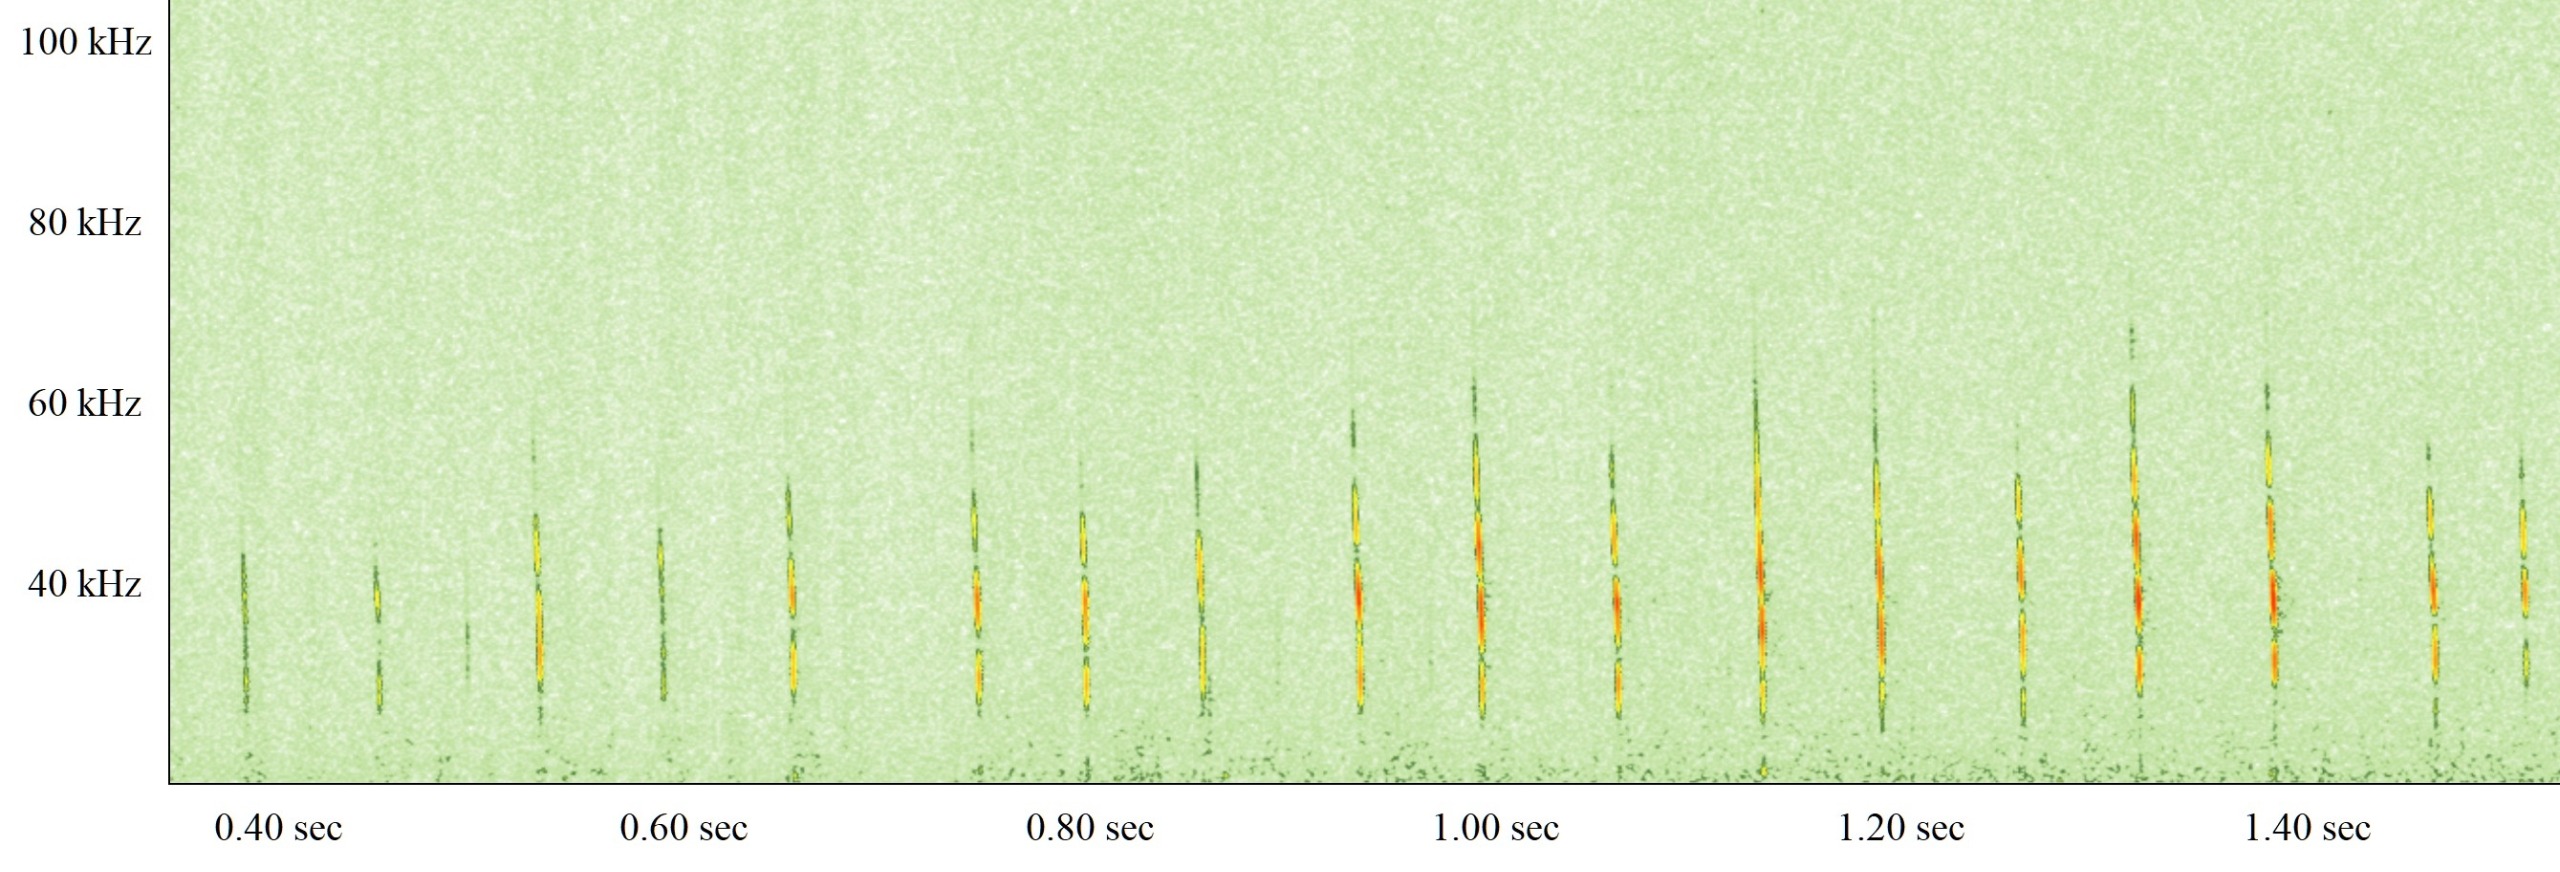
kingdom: Animalia
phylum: Chordata
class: Mammalia
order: Chiroptera
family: Vespertilionidae
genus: Myotis
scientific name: Myotis daubentonii
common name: Vandflagermus
